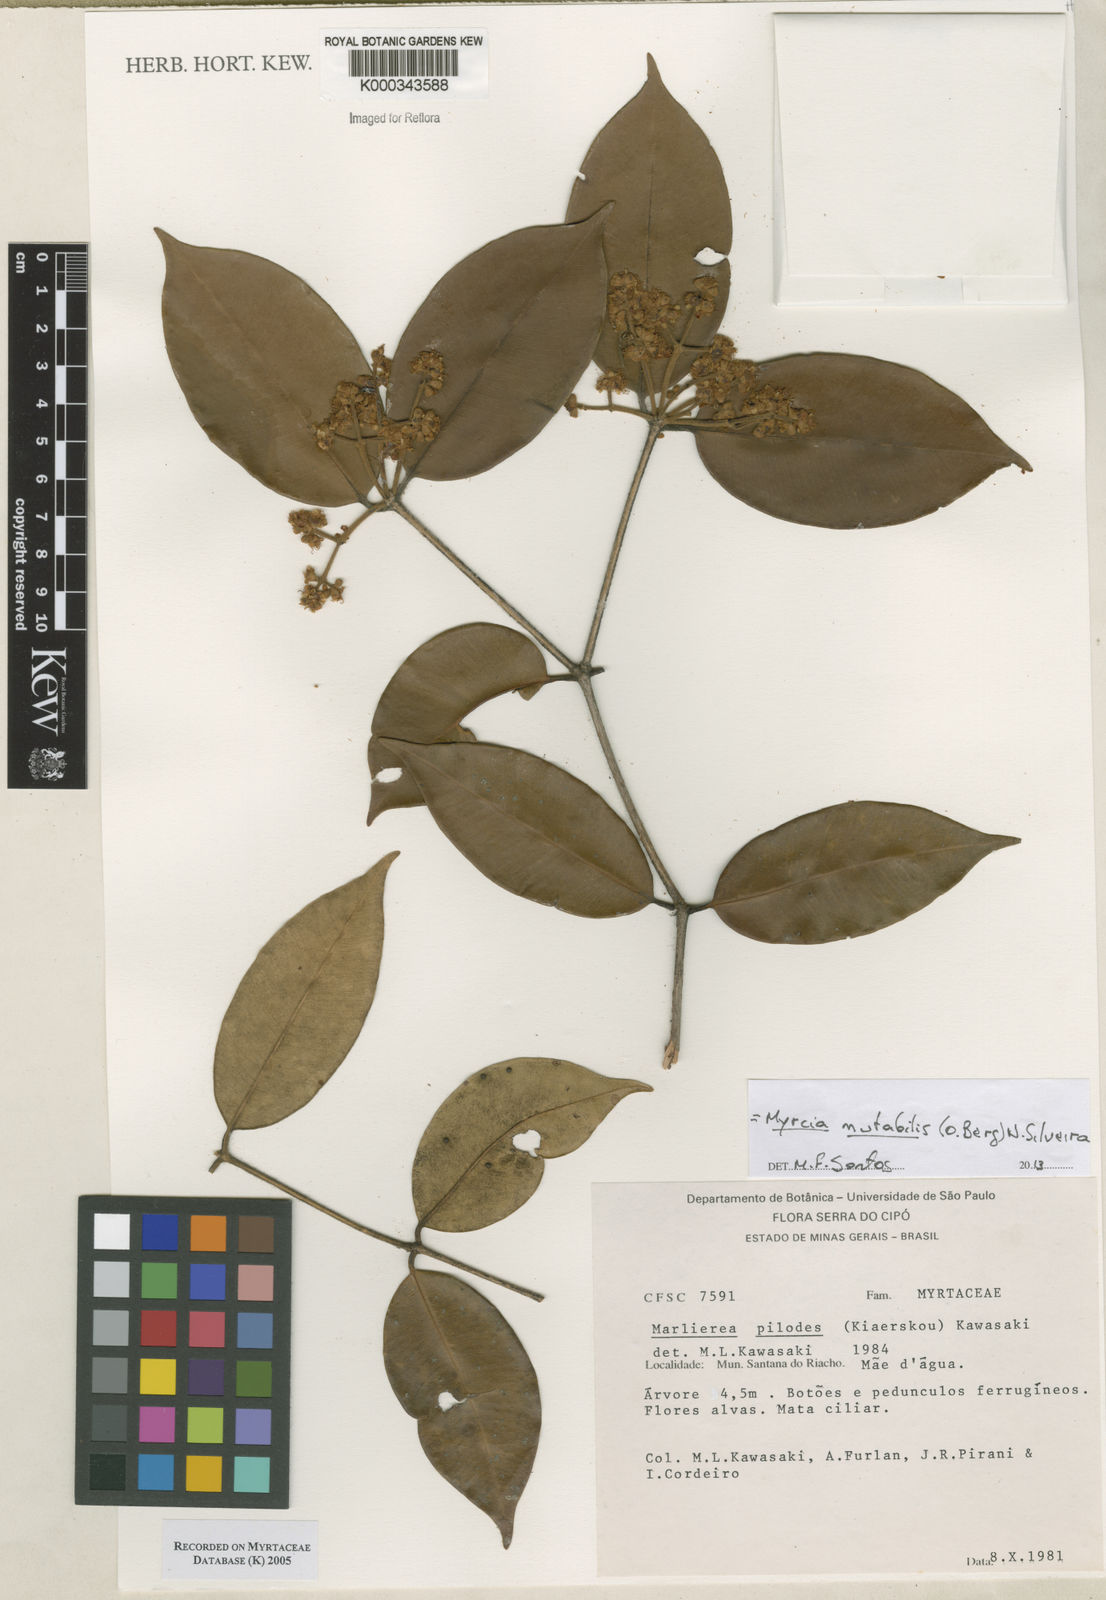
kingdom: Plantae
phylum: Tracheophyta
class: Magnoliopsida
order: Myrtales
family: Myrtaceae
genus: Myrcia
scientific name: Myrcia mutabilis
